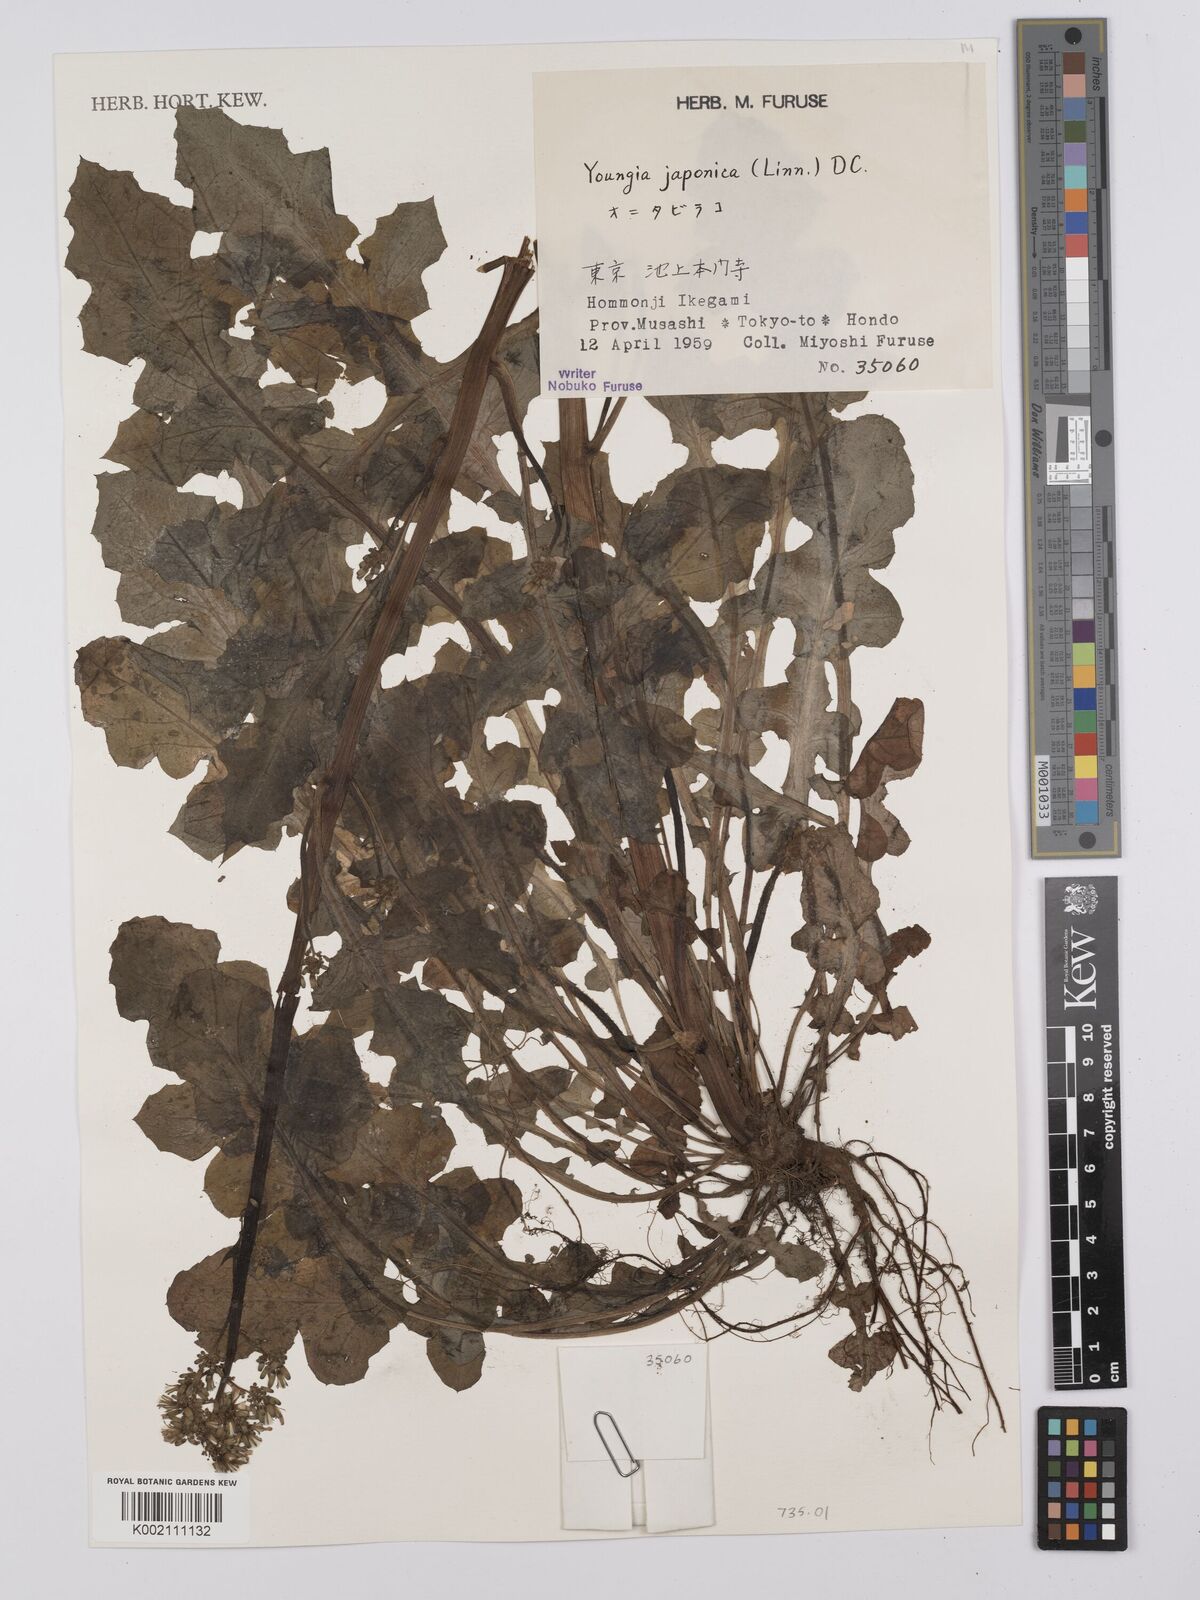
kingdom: Plantae
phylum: Tracheophyta
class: Magnoliopsida
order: Asterales
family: Asteraceae
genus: Youngia
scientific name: Youngia japonica
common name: Oriental false hawksbeard
